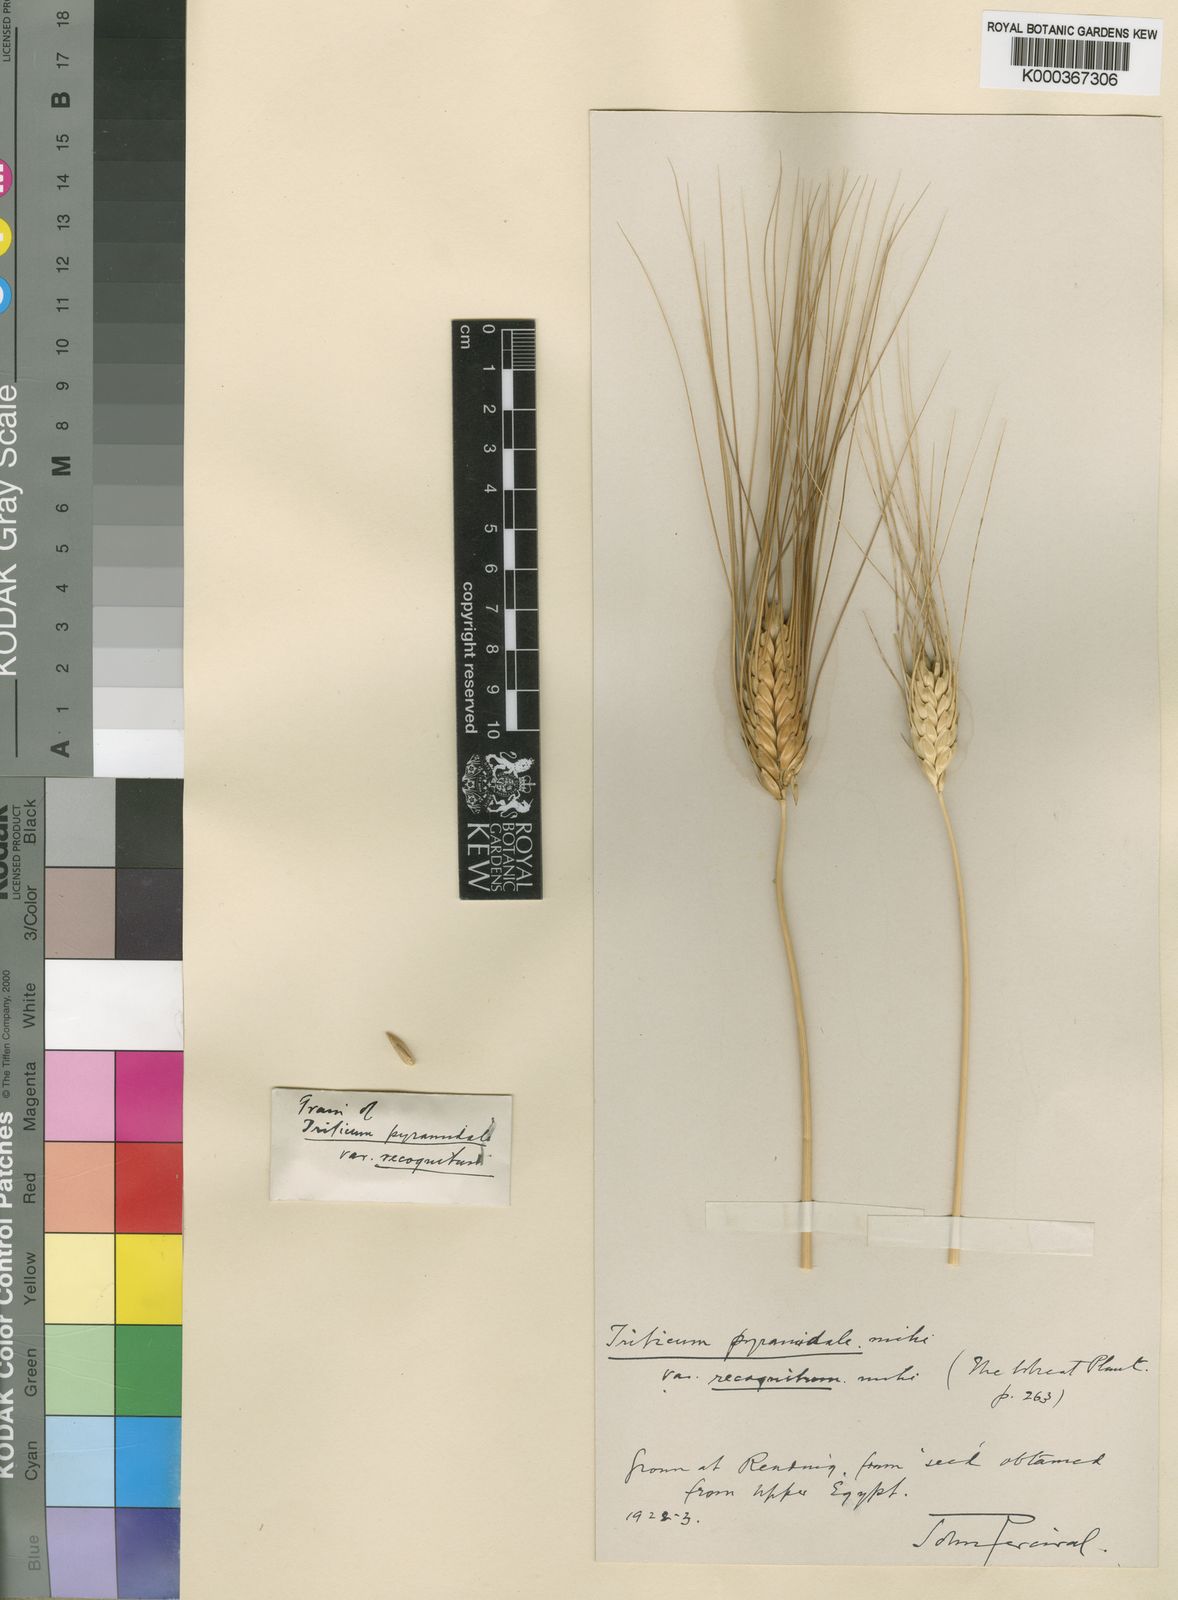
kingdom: Plantae
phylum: Tracheophyta
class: Liliopsida
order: Poales
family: Poaceae
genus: Triticum
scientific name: Triticum turgidum
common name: Rivet wheat
